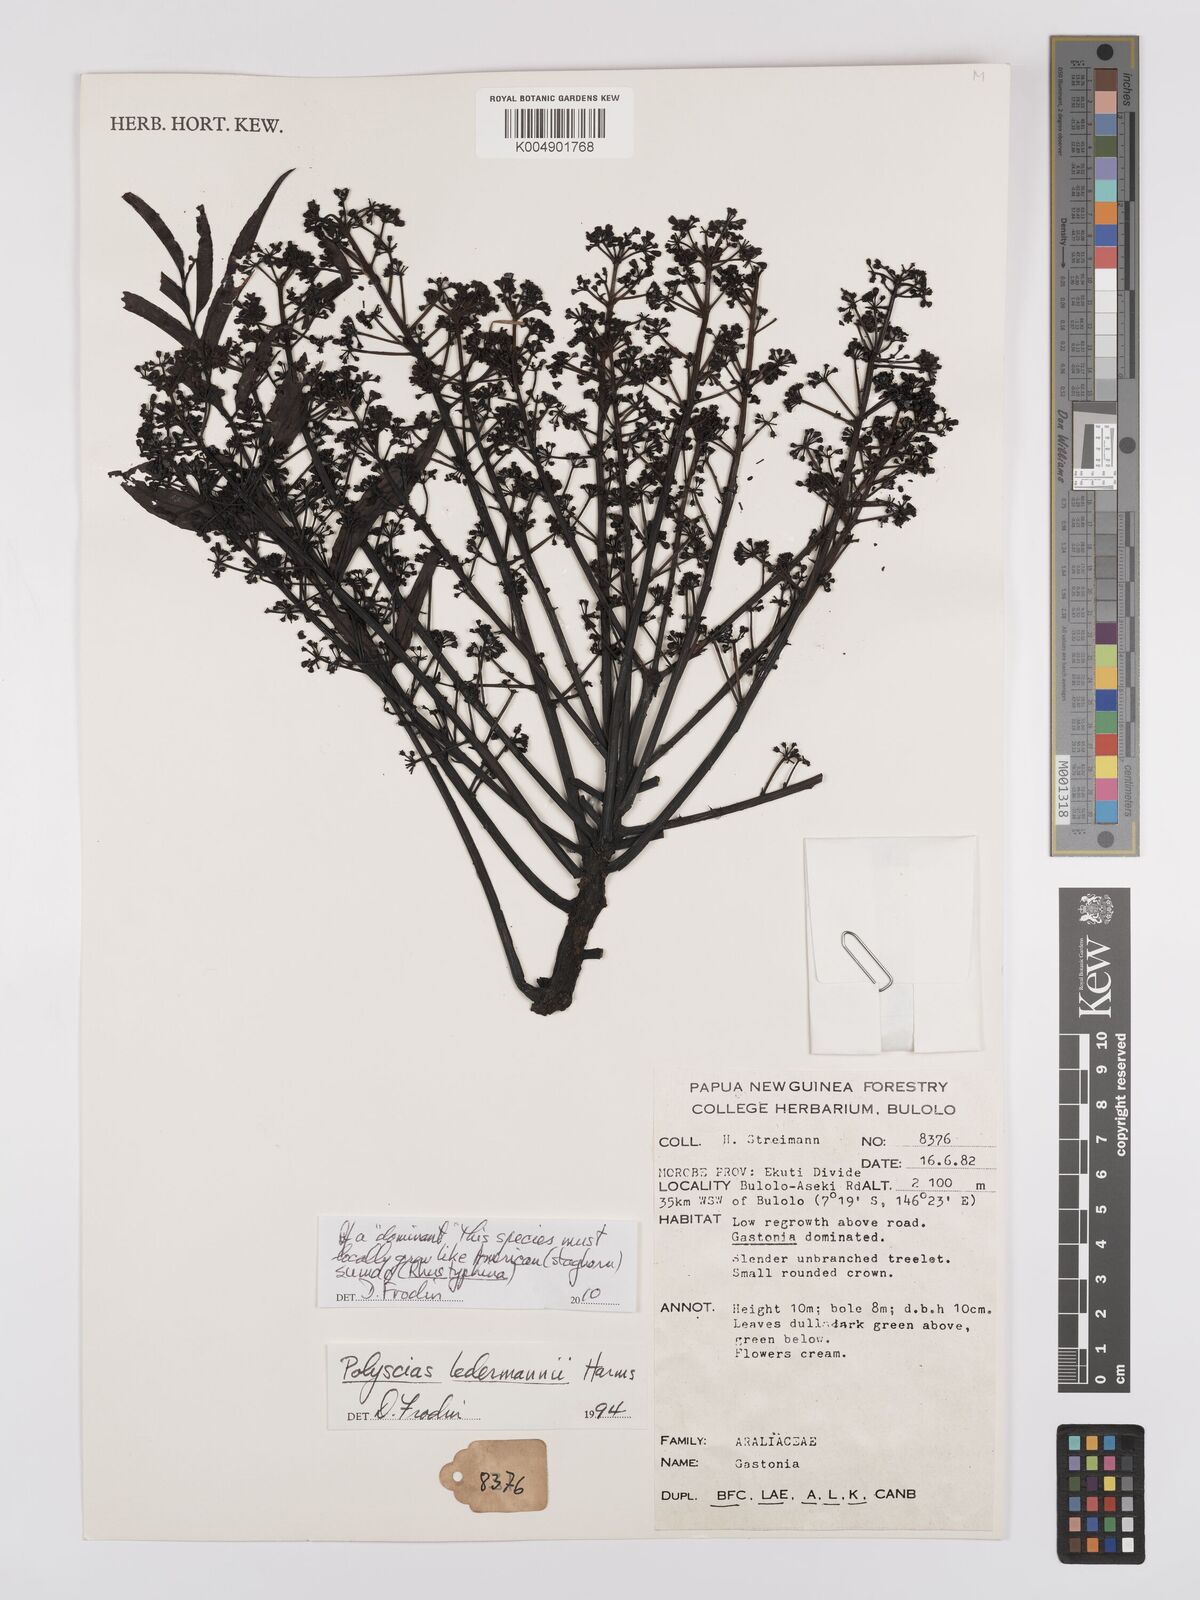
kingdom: Plantae
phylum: Tracheophyta
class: Magnoliopsida
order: Apiales
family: Araliaceae
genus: Polyscias
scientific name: Polyscias ledermannii
